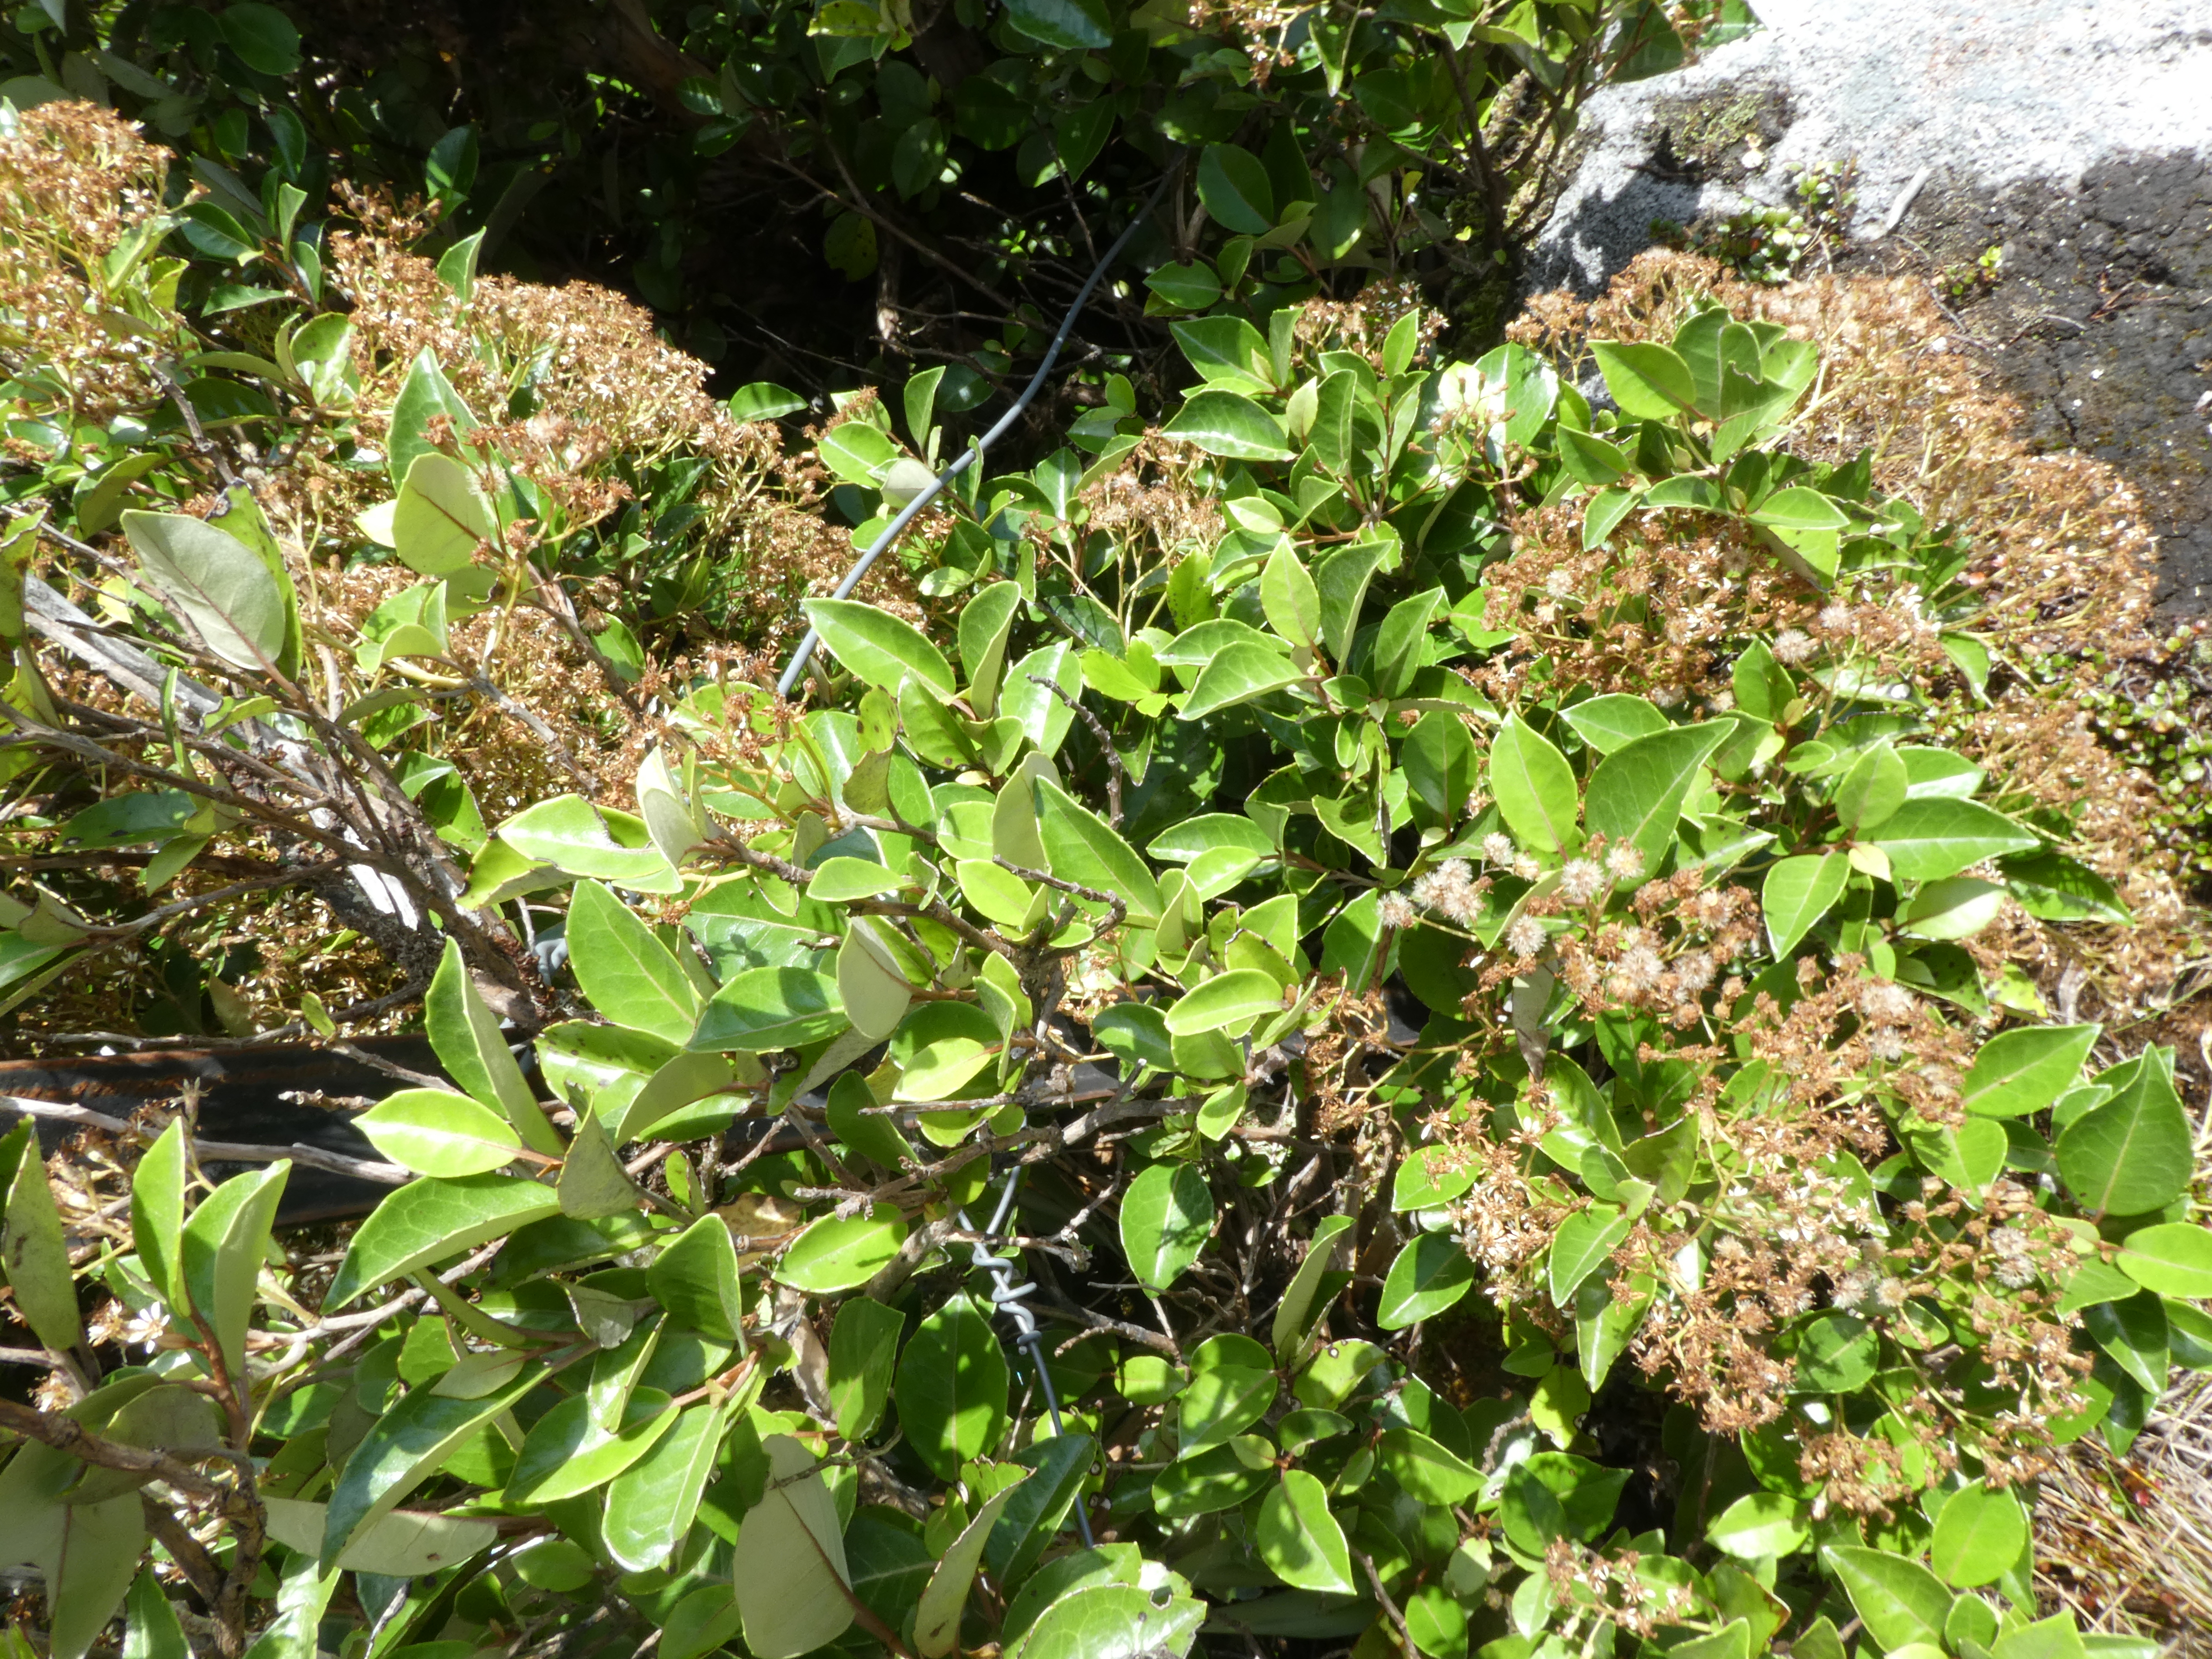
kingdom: Plantae
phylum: Tracheophyta
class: Magnoliopsida
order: Asterales
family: Asteraceae
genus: Olearia
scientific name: Olearia arborescens
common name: Glossy tree daisy
